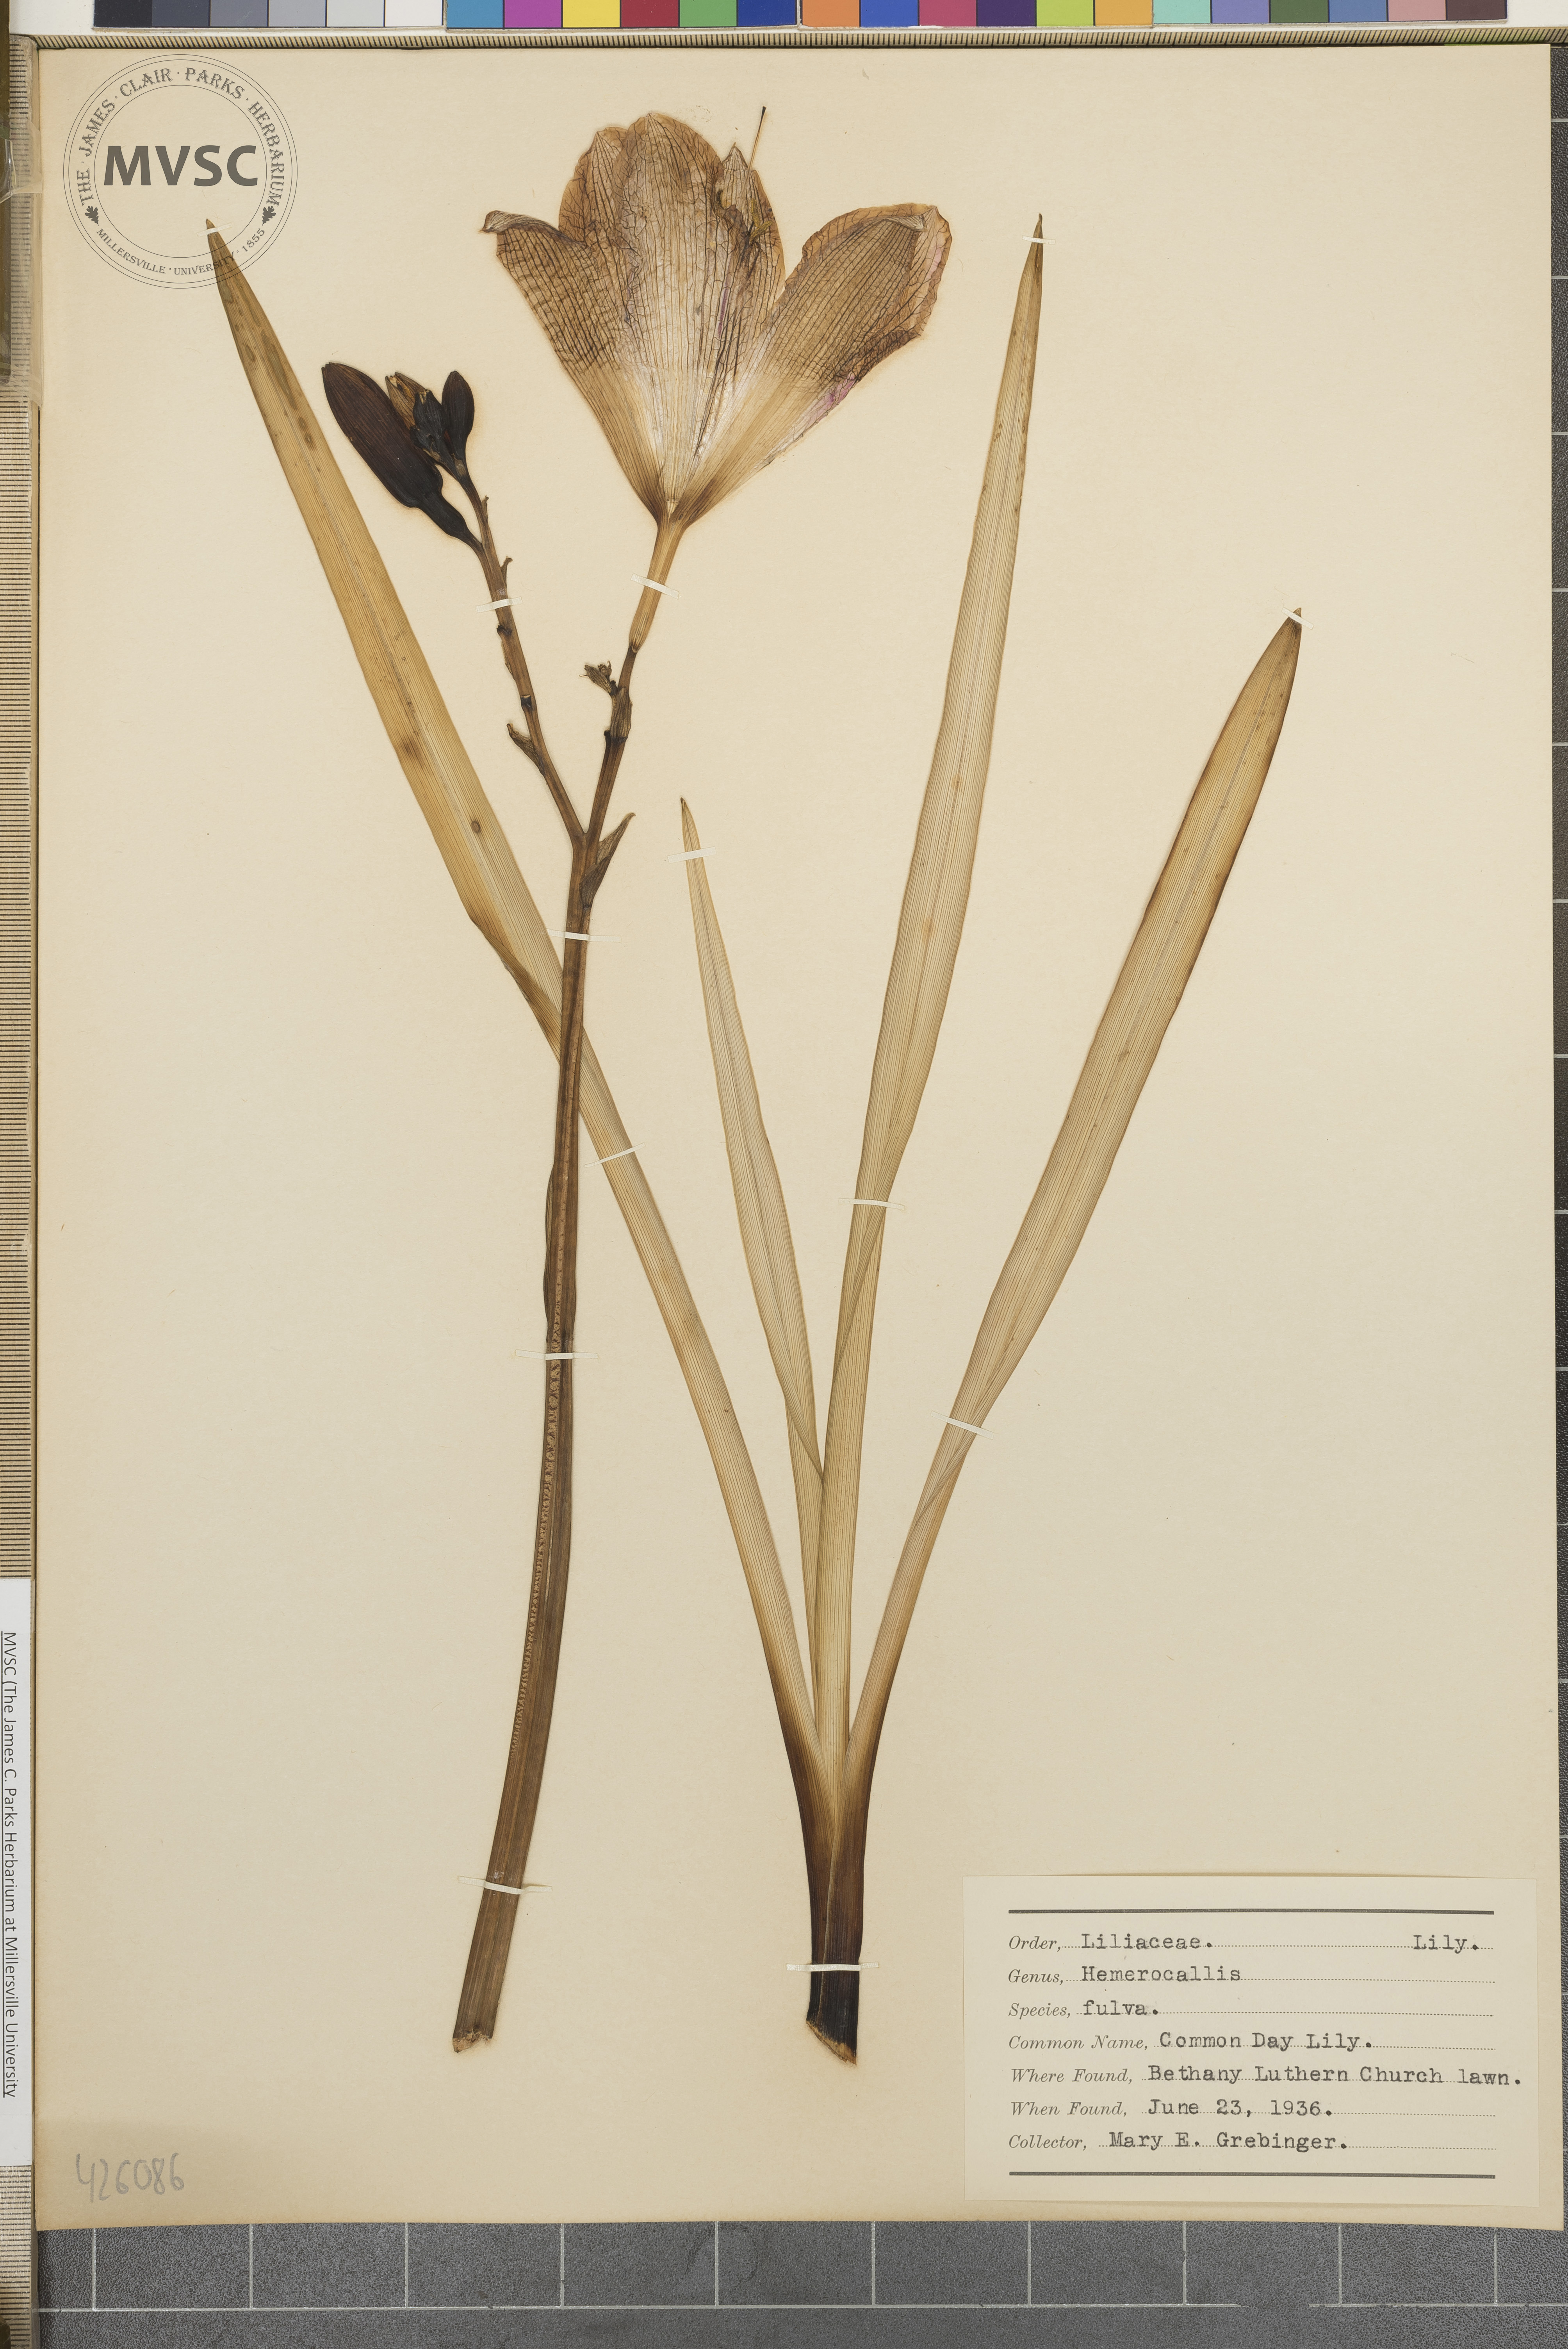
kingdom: Plantae
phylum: Tracheophyta
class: Liliopsida
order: Asparagales
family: Asphodelaceae
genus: Hemerocallis
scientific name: Hemerocallis fulva
